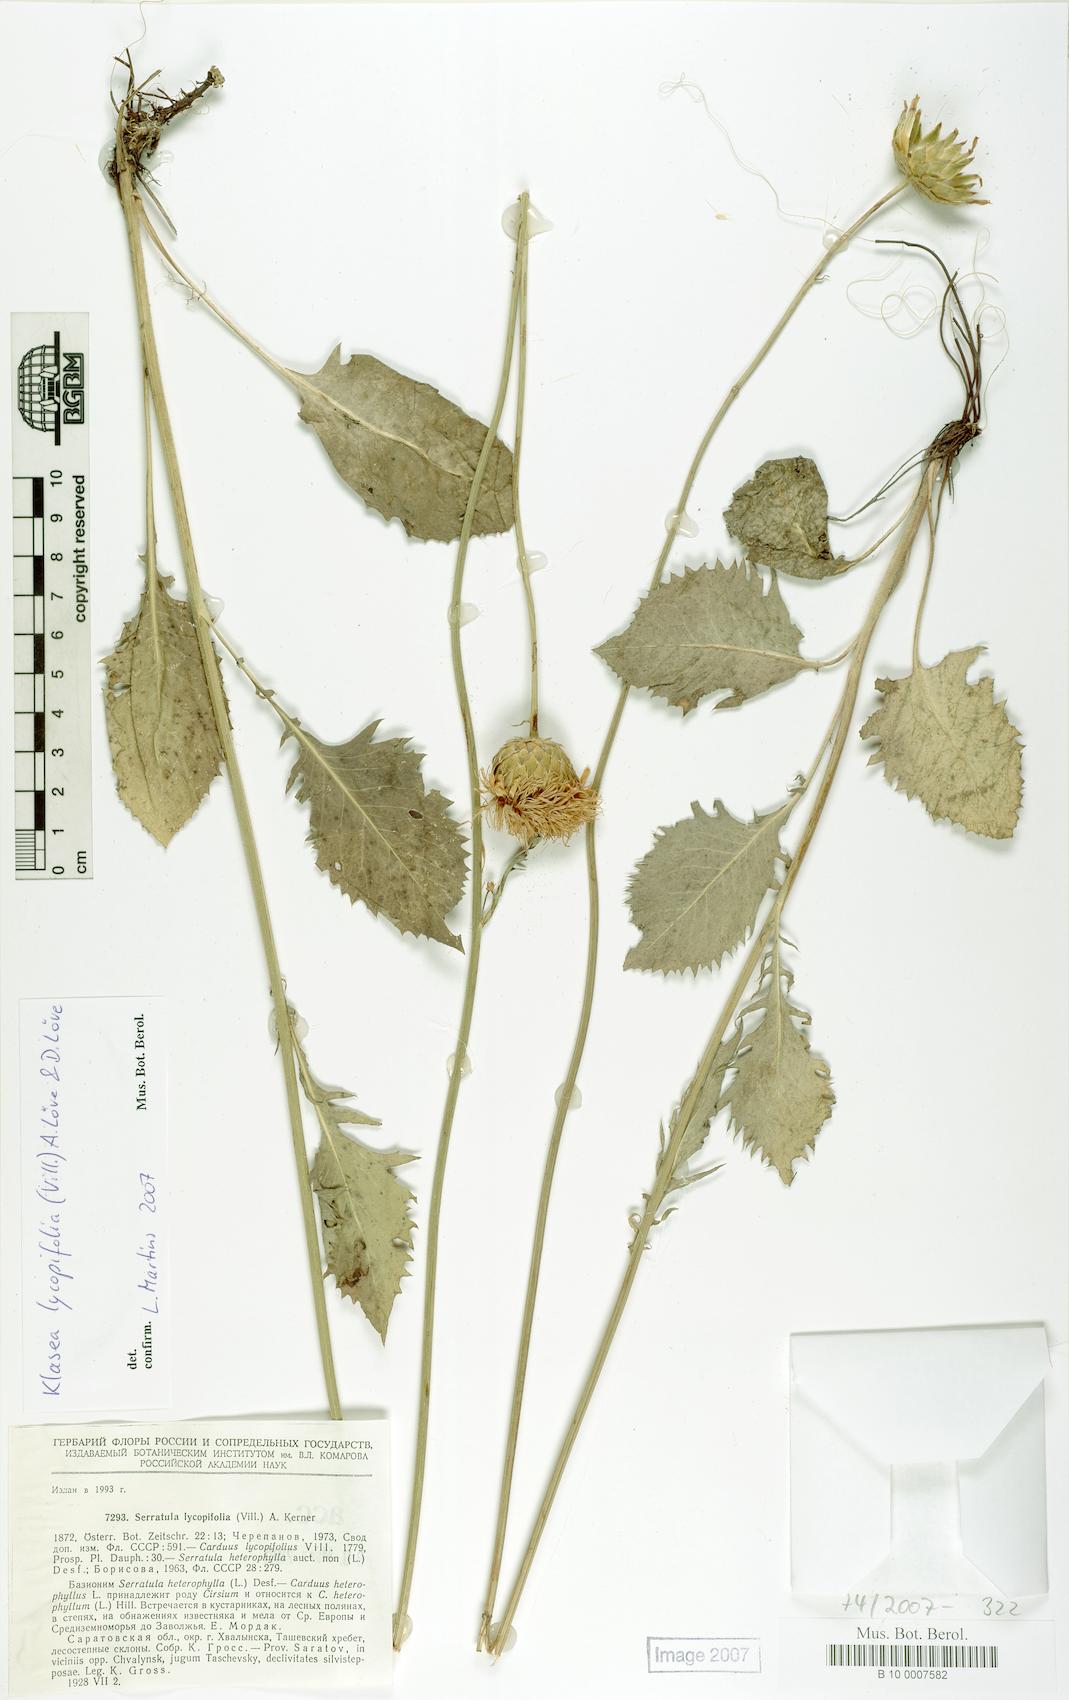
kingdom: Plantae
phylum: Tracheophyta
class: Magnoliopsida
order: Asterales
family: Asteraceae
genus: Klasea
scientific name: Klasea lycopifolia
